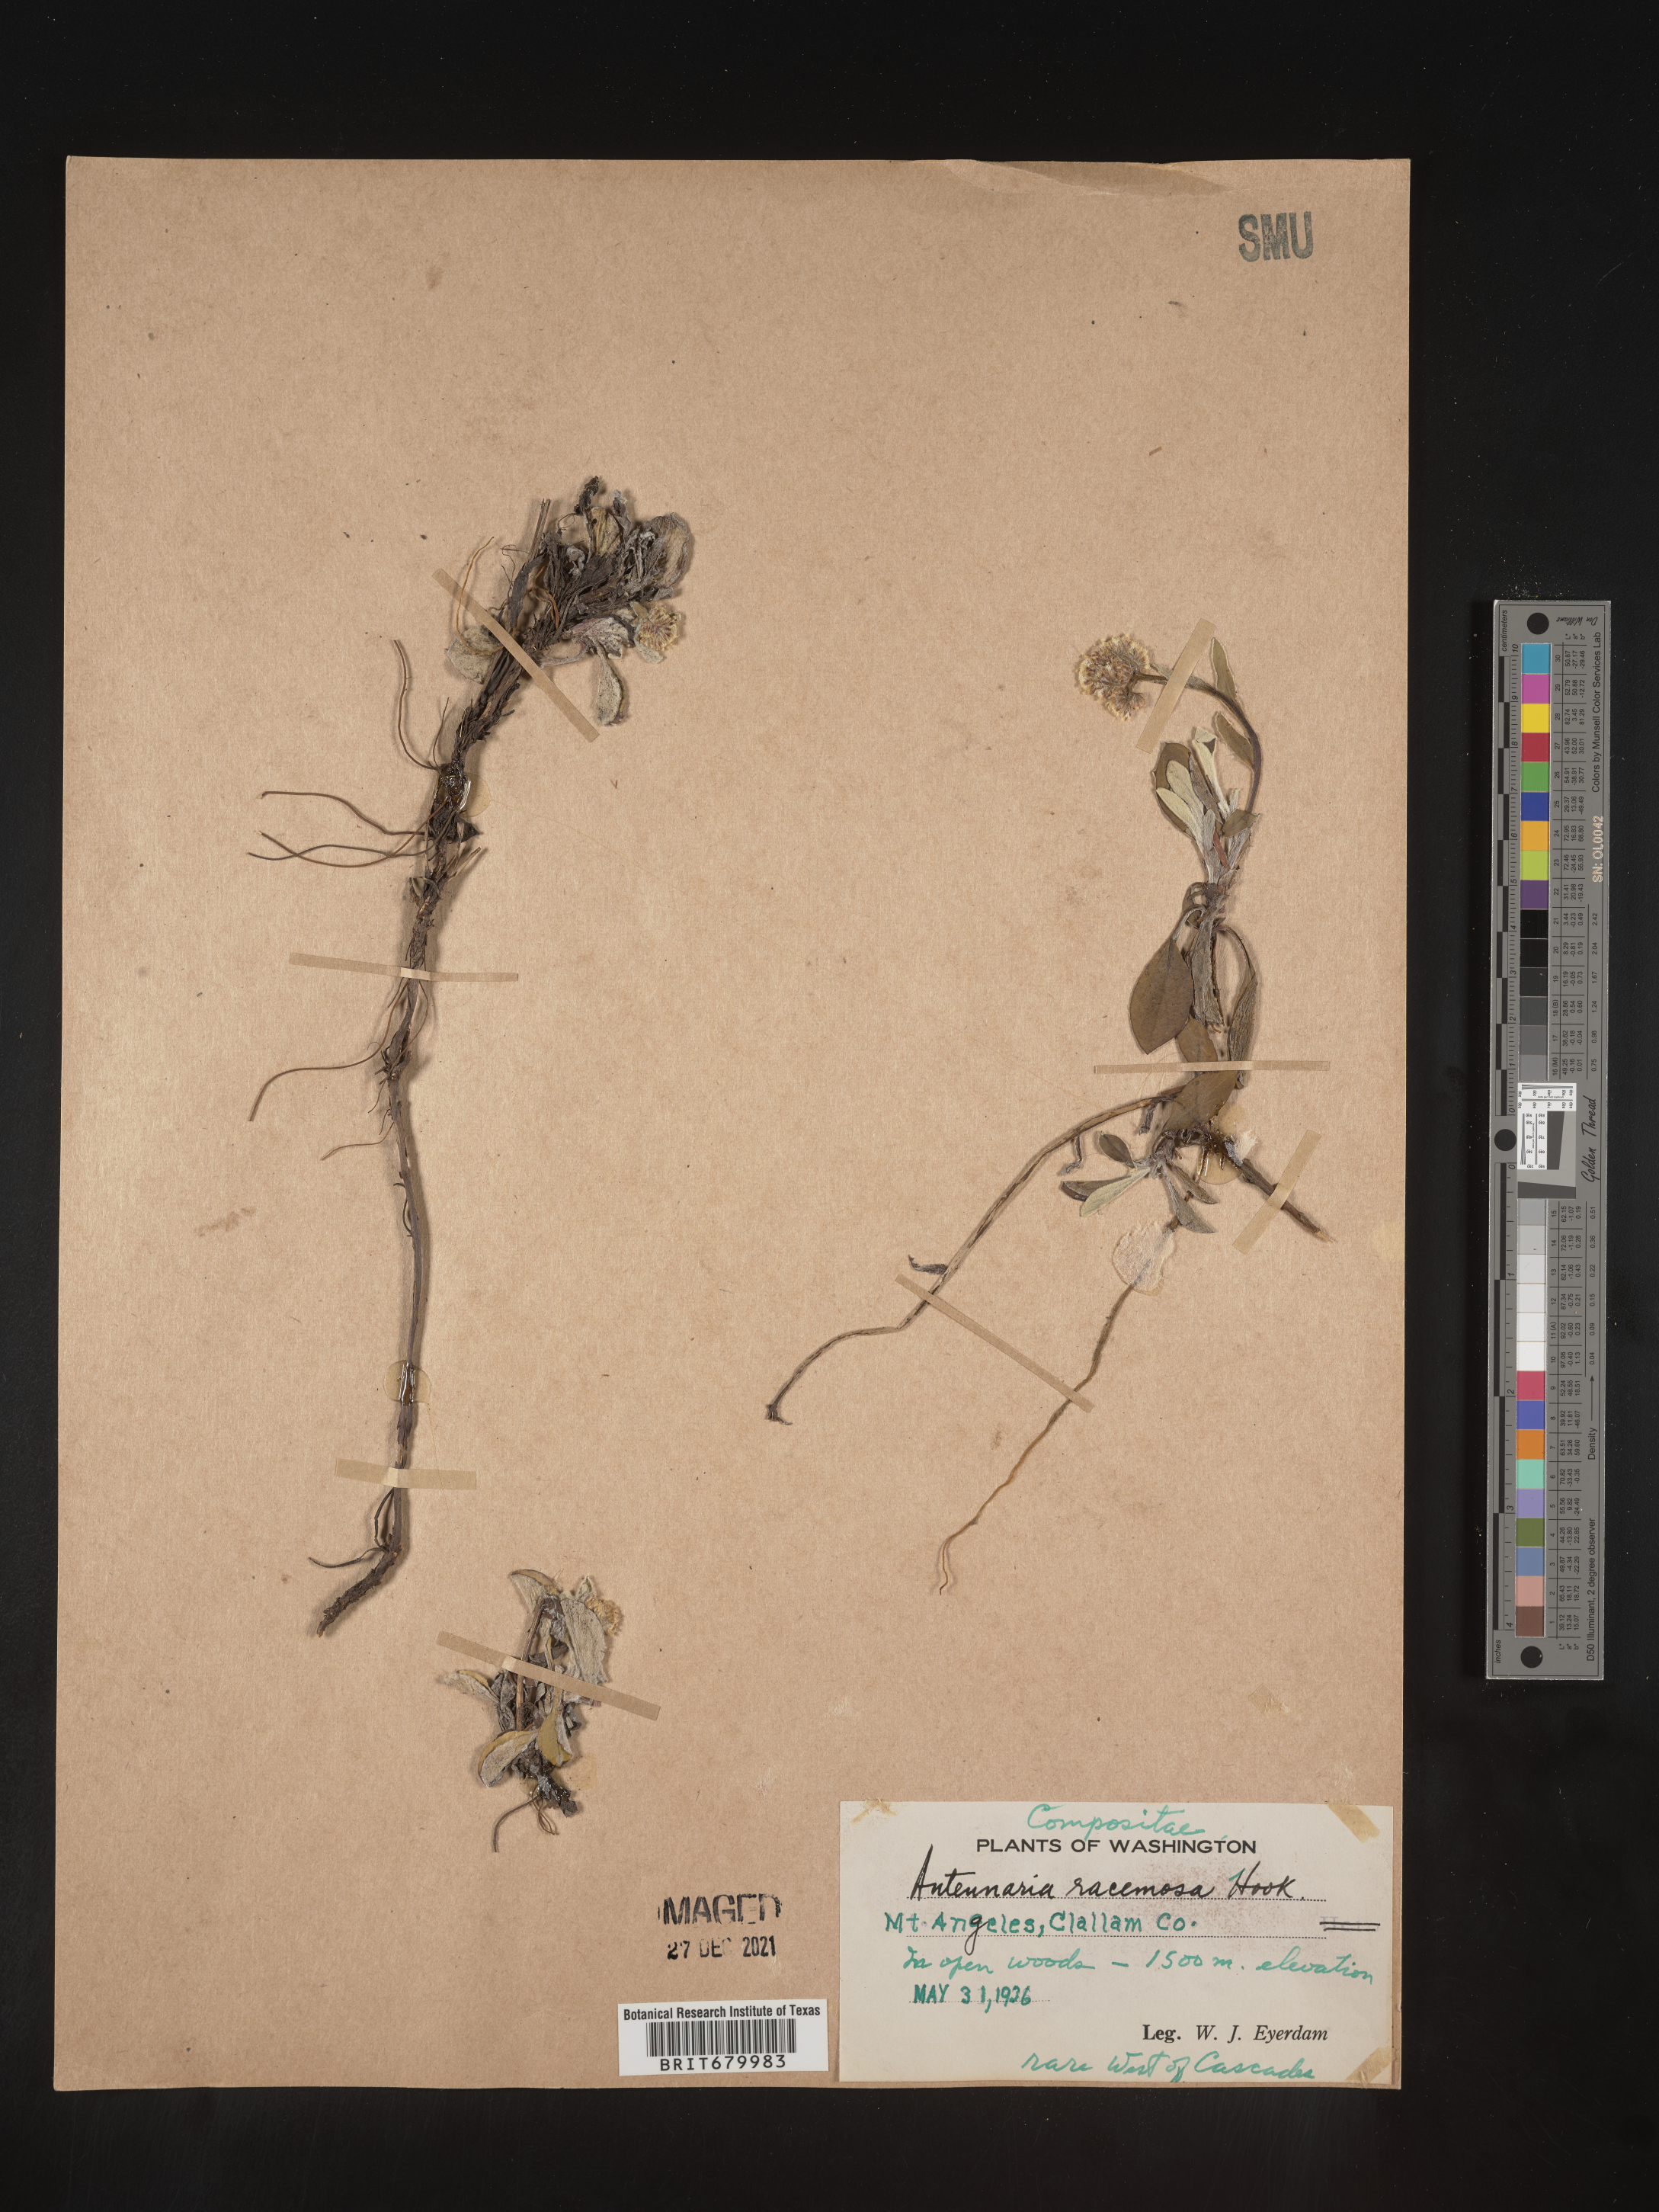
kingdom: Plantae
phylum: Tracheophyta
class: Magnoliopsida
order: Asterales
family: Asteraceae
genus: Antennaria
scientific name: Antennaria racemosa
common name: Racemose pussytoes
